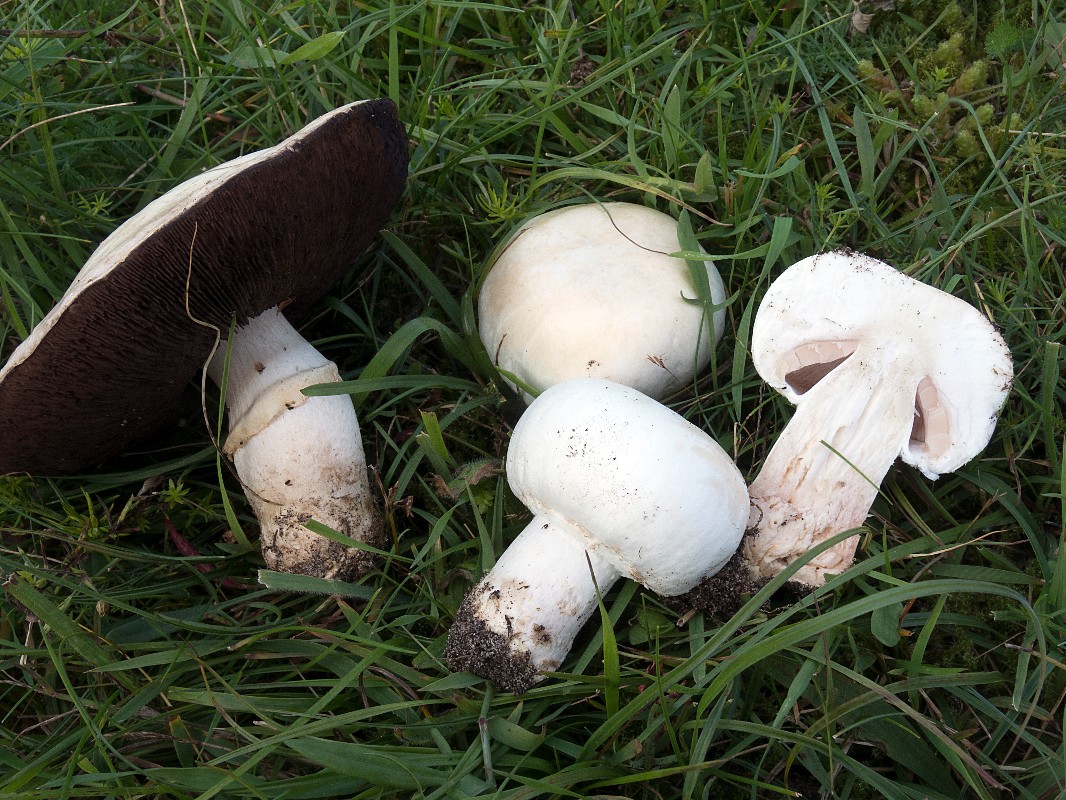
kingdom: Fungi
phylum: Basidiomycota
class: Agaricomycetes
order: Agaricales
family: Agaricaceae
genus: Agaricus
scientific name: Agaricus litoralis
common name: kyst-champignon
